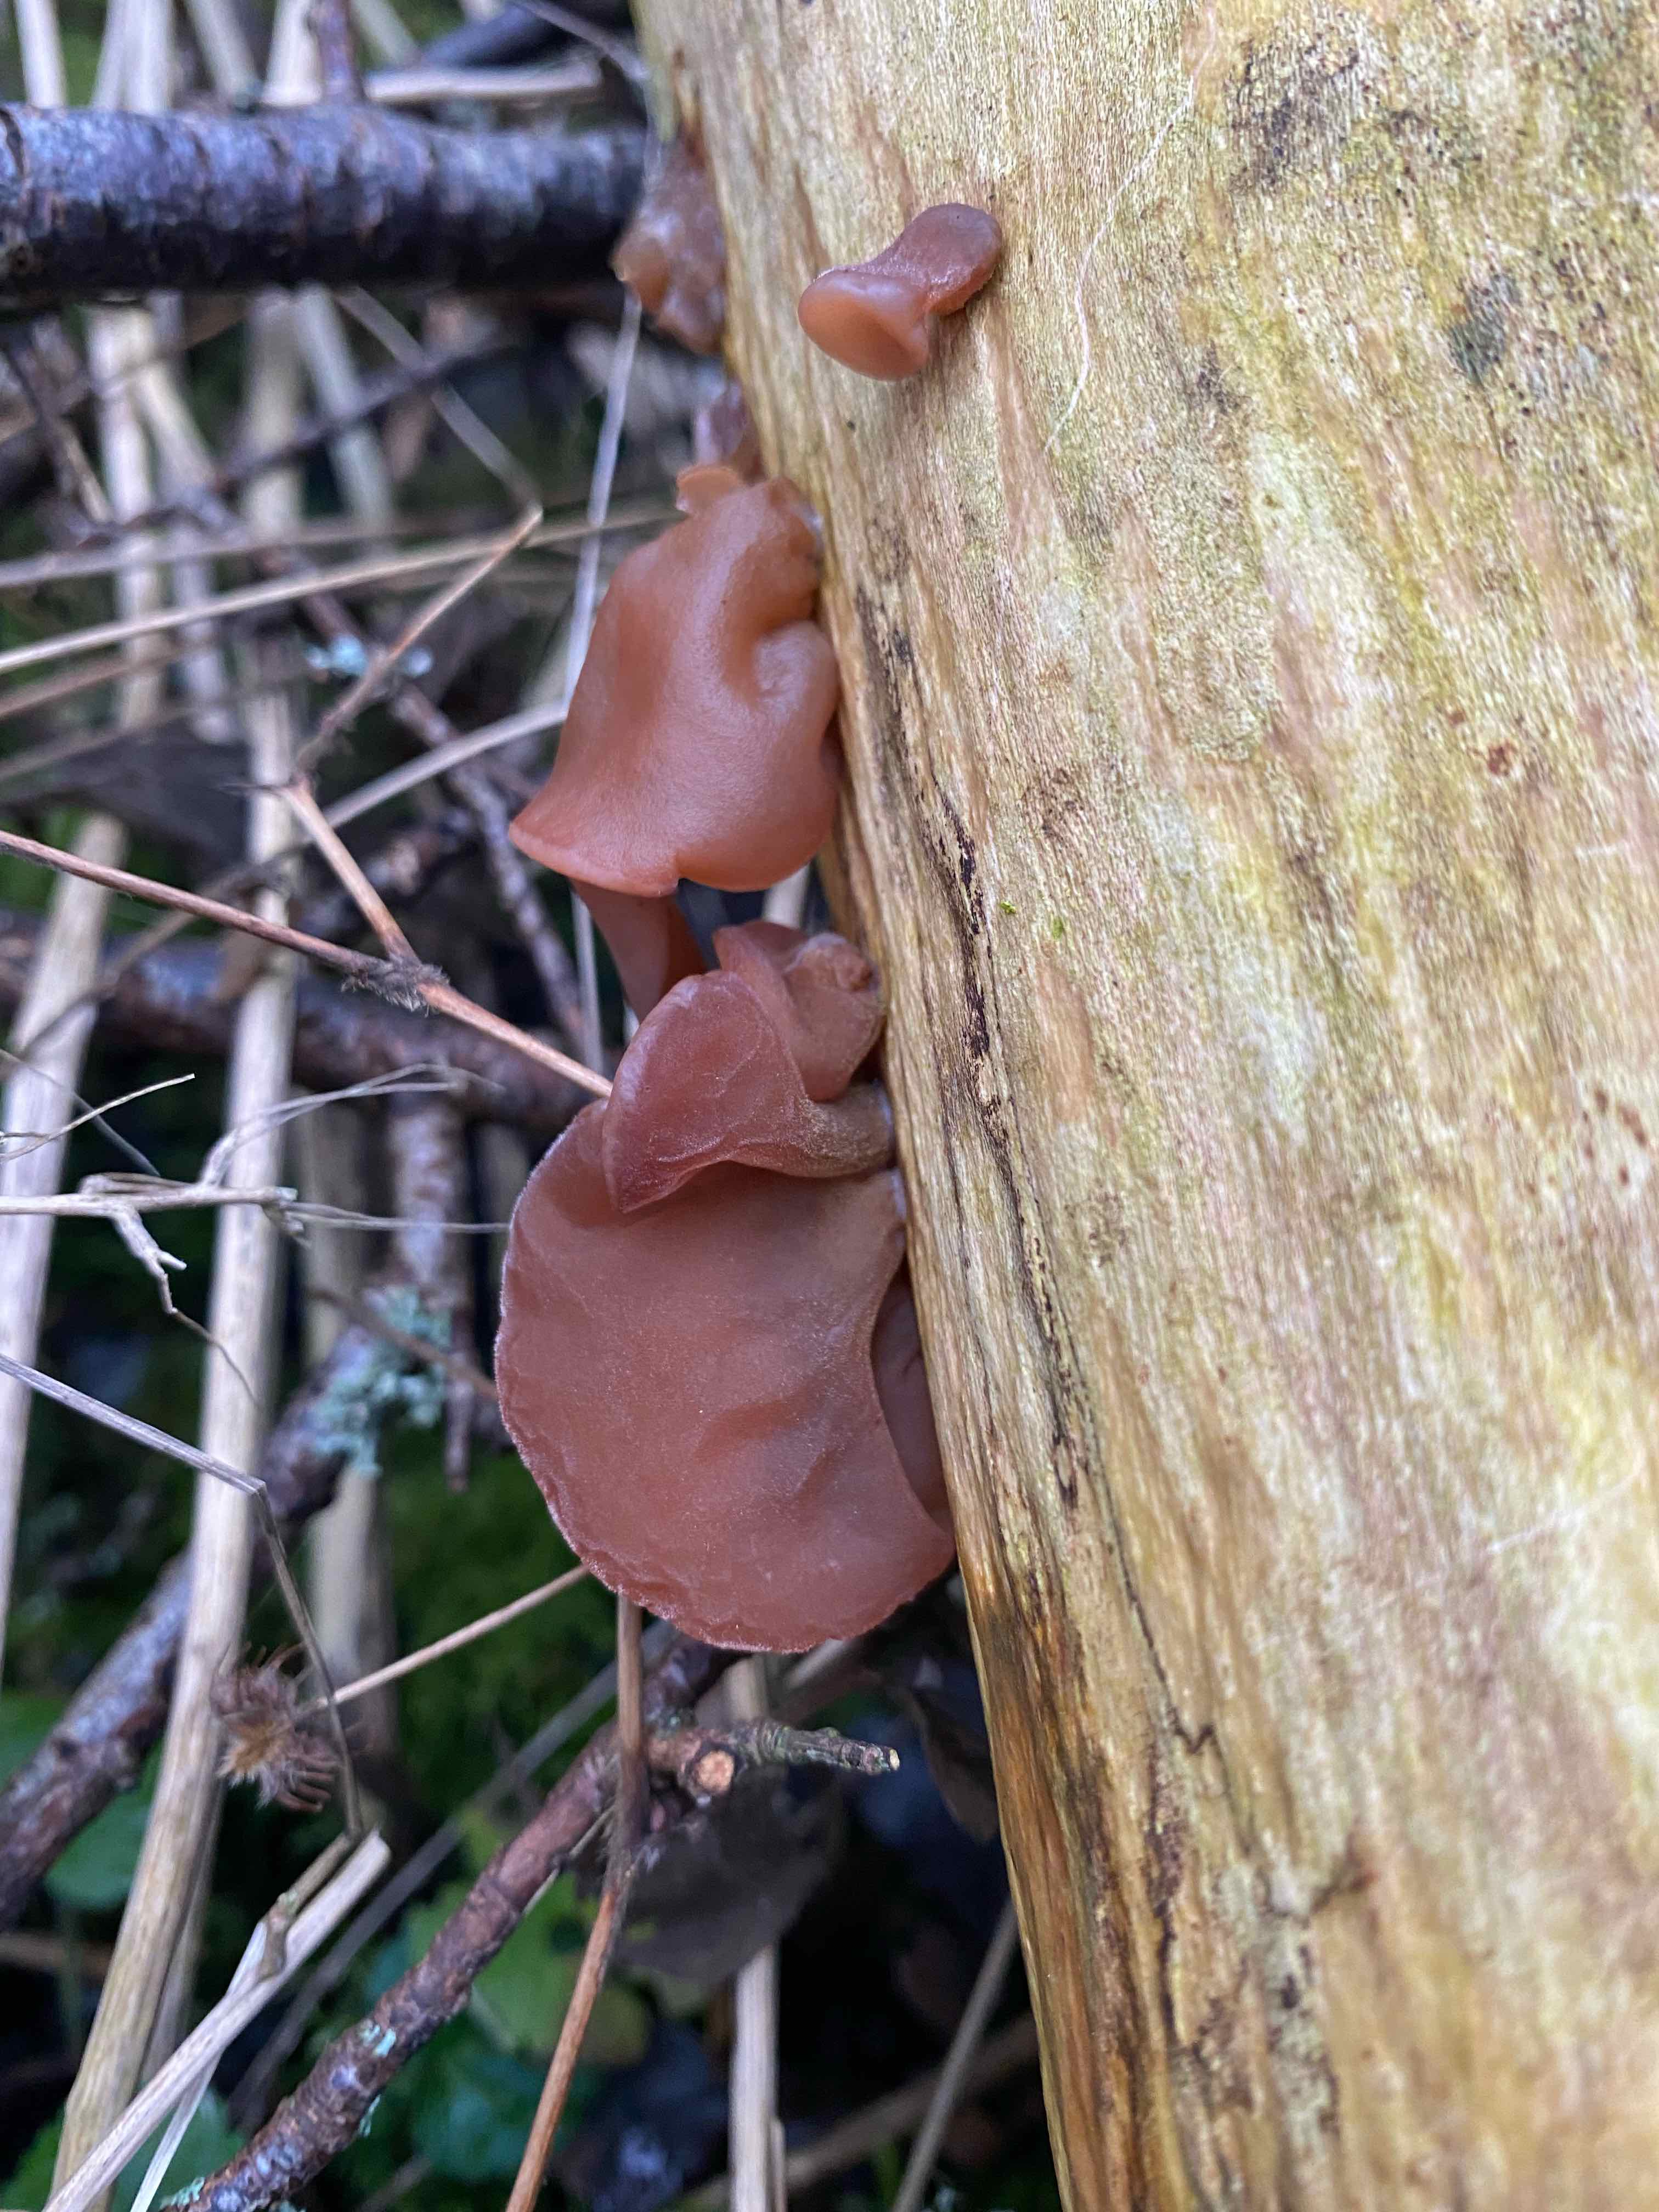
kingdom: Fungi
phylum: Basidiomycota
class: Agaricomycetes
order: Auriculariales
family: Auriculariaceae
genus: Auricularia
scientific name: Auricularia auricula-judae
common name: almindelig judasøre
